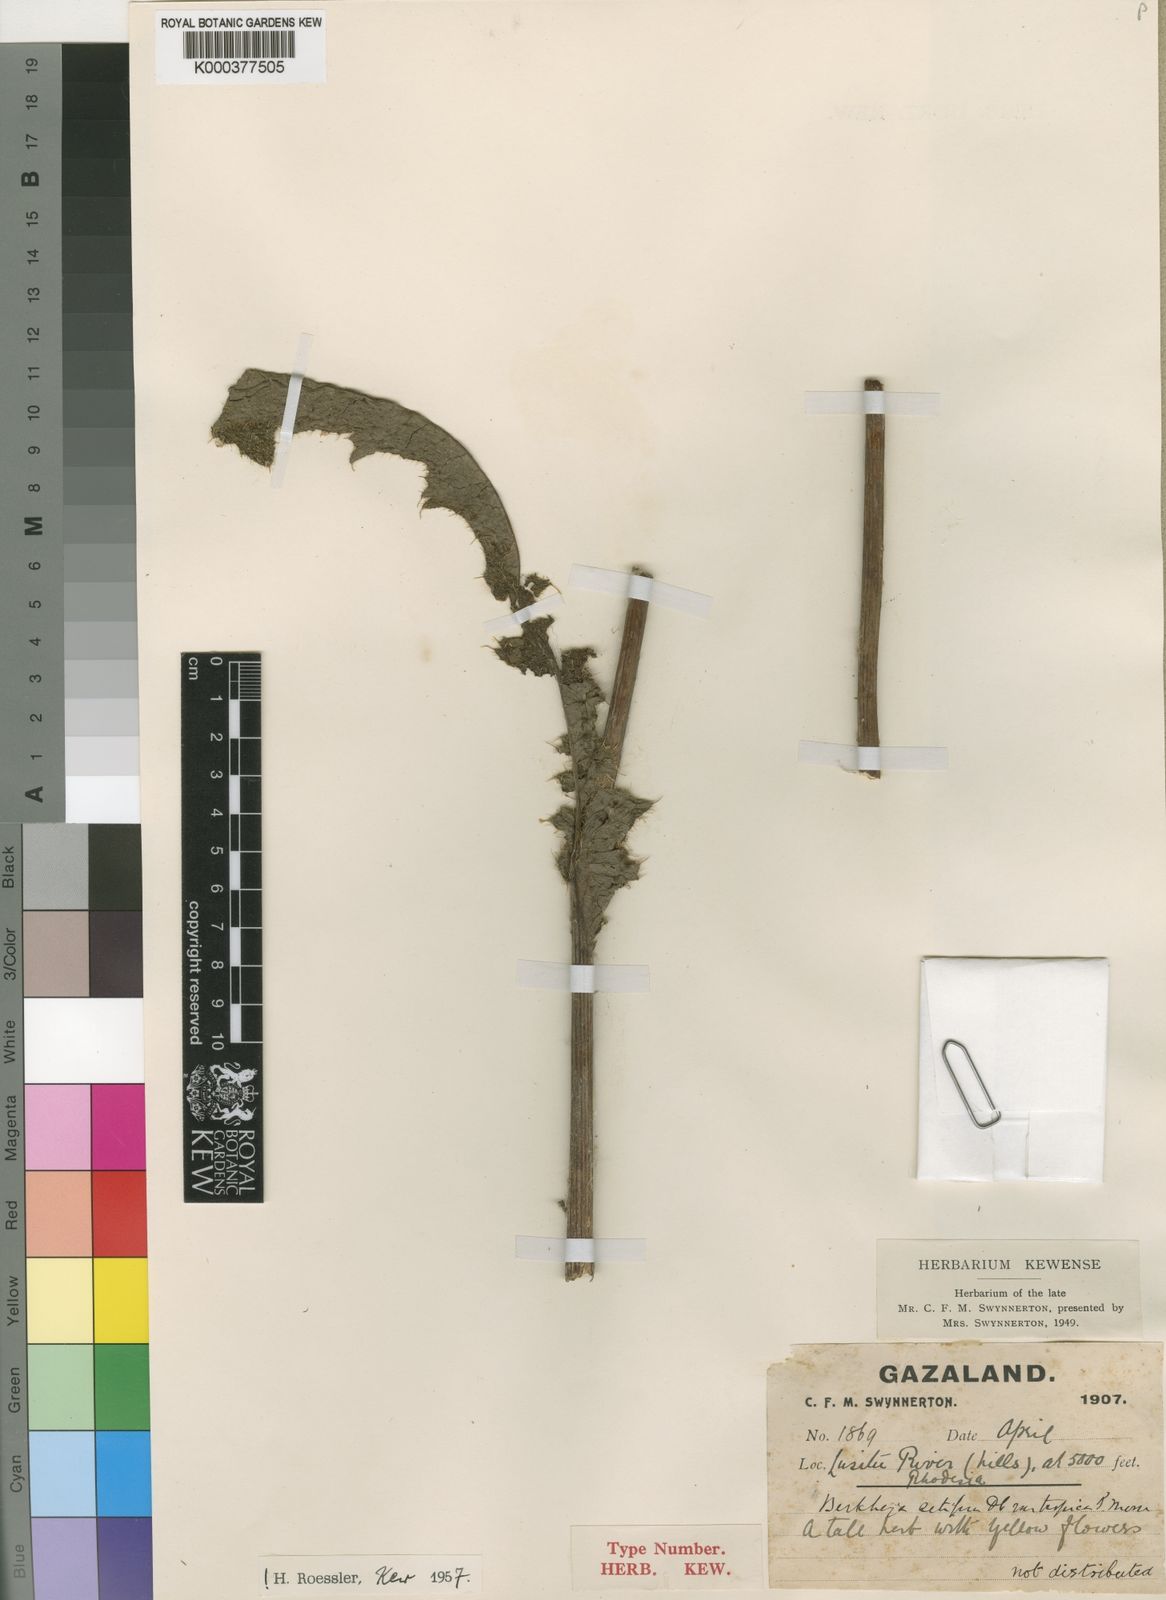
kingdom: Plantae
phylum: Tracheophyta
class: Magnoliopsida
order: Asterales
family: Asteraceae
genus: Berkheya
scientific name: Berkheya setifera
